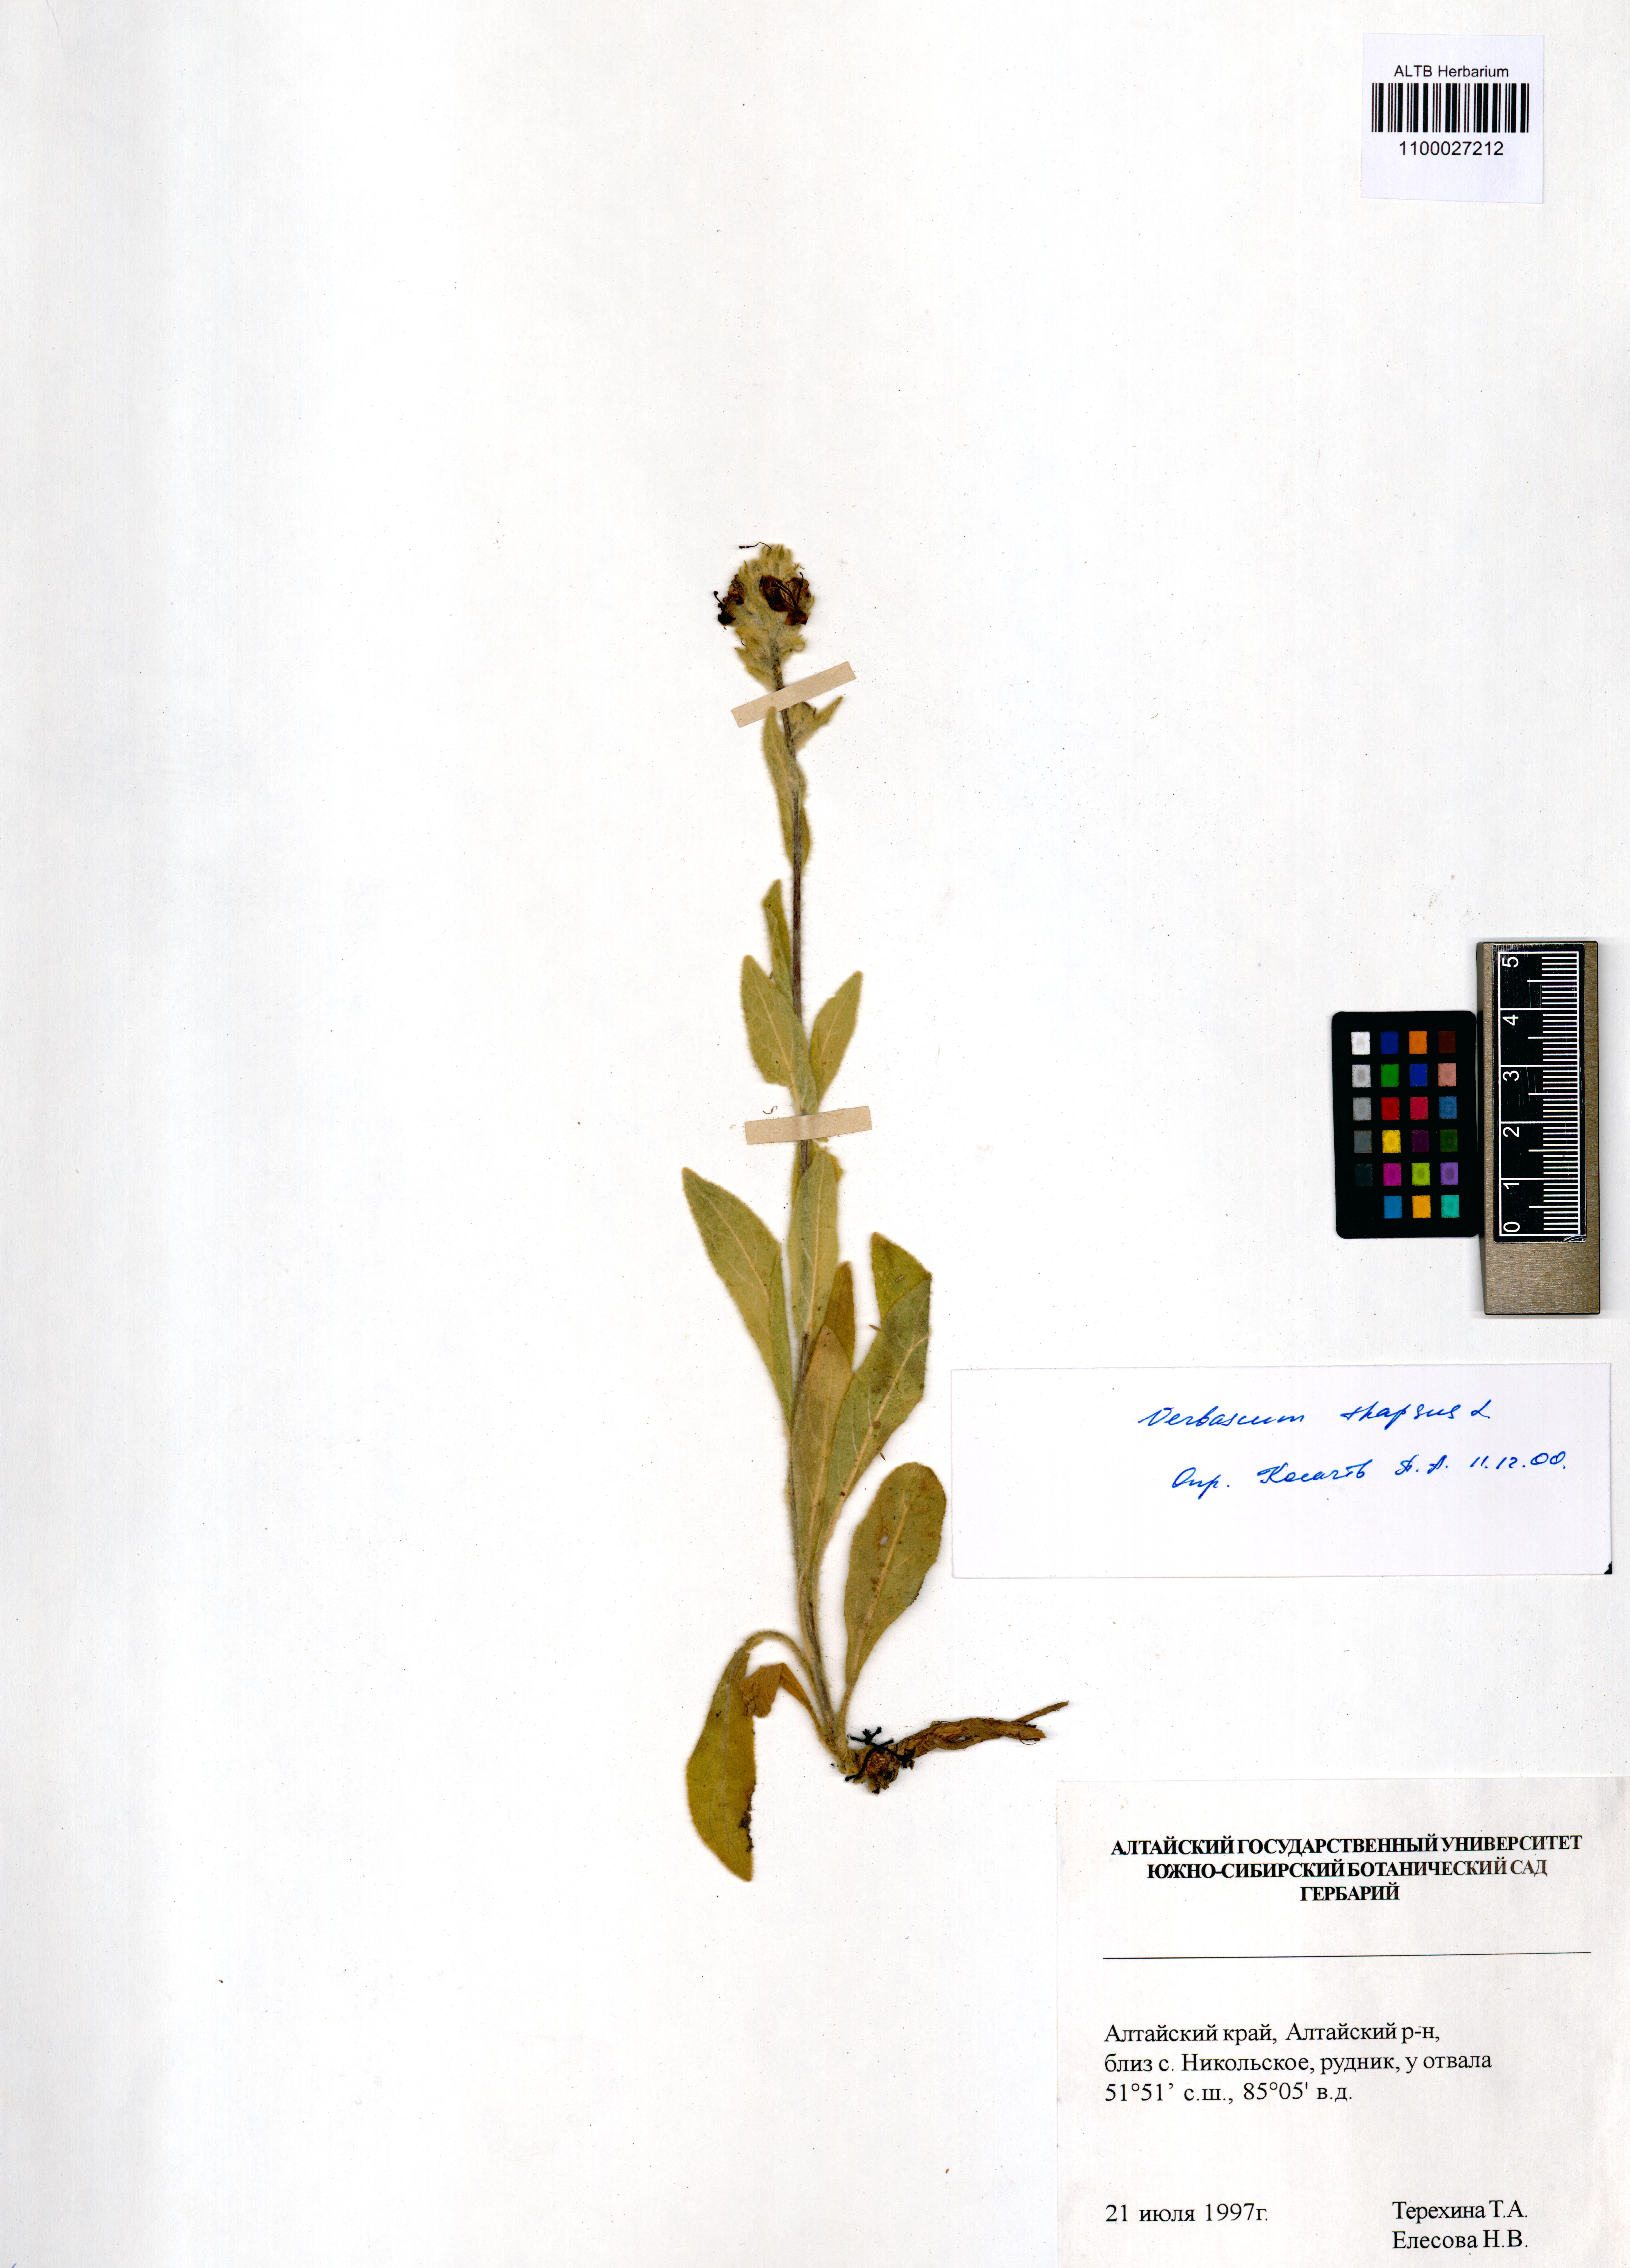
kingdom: Plantae
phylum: Tracheophyta
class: Magnoliopsida
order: Lamiales
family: Scrophulariaceae
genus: Verbascum
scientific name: Verbascum thapsus
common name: Common mullein
